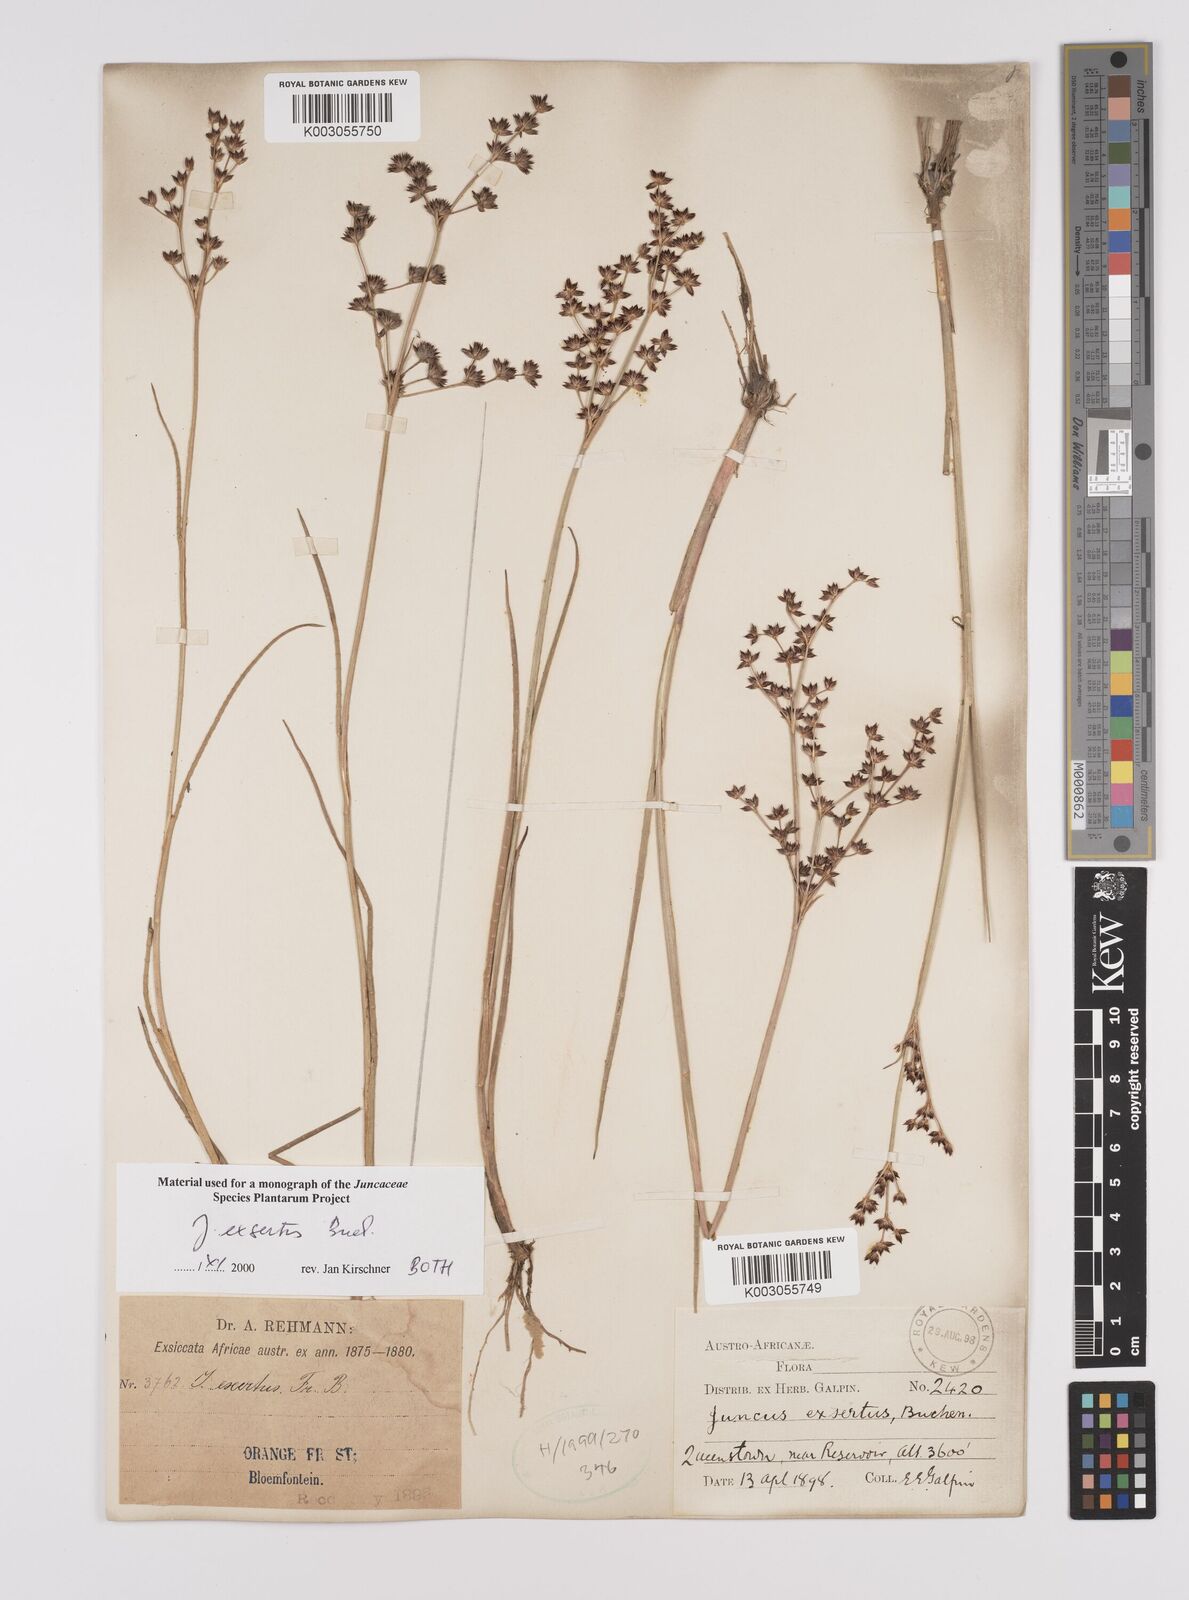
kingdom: Plantae
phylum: Tracheophyta
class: Liliopsida
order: Poales
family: Juncaceae
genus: Juncus
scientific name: Juncus exsertus
